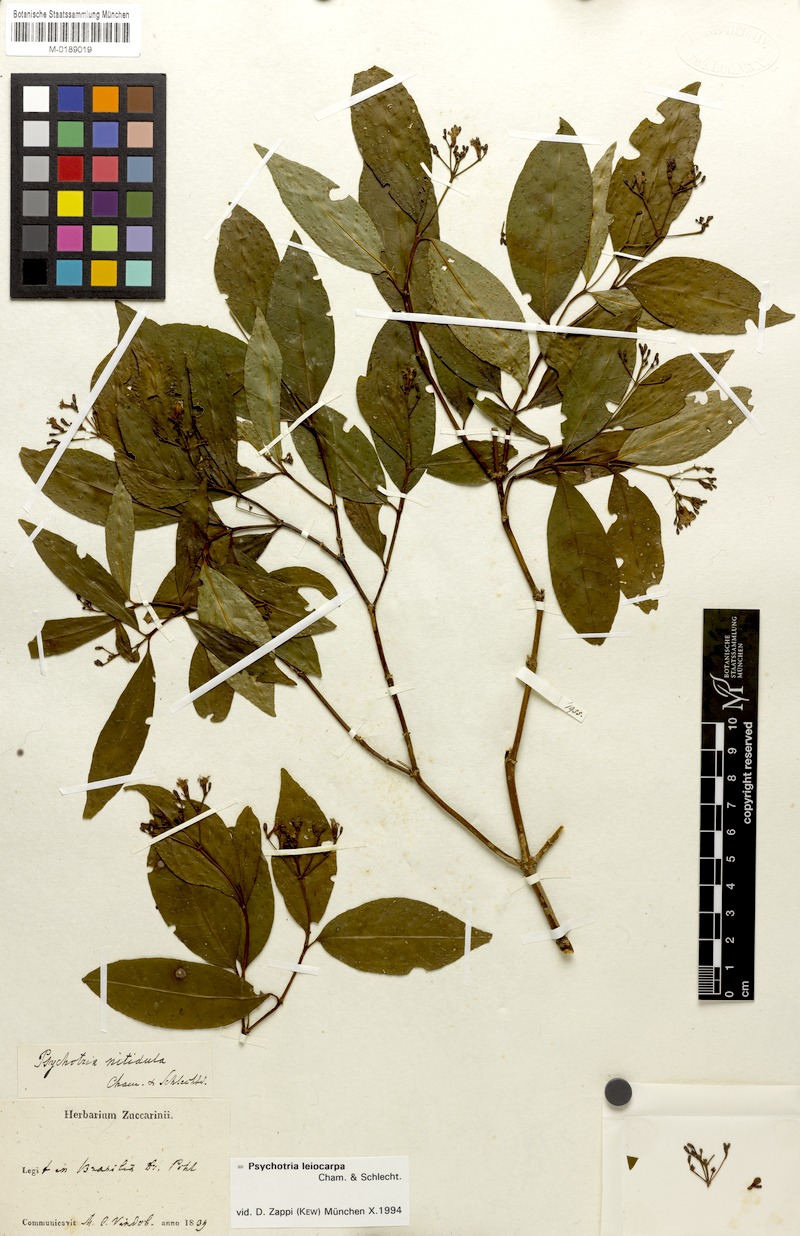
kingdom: Plantae
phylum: Tracheophyta
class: Magnoliopsida
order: Gentianales
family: Rubiaceae
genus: Psychotria
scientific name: Psychotria leiocarpa
